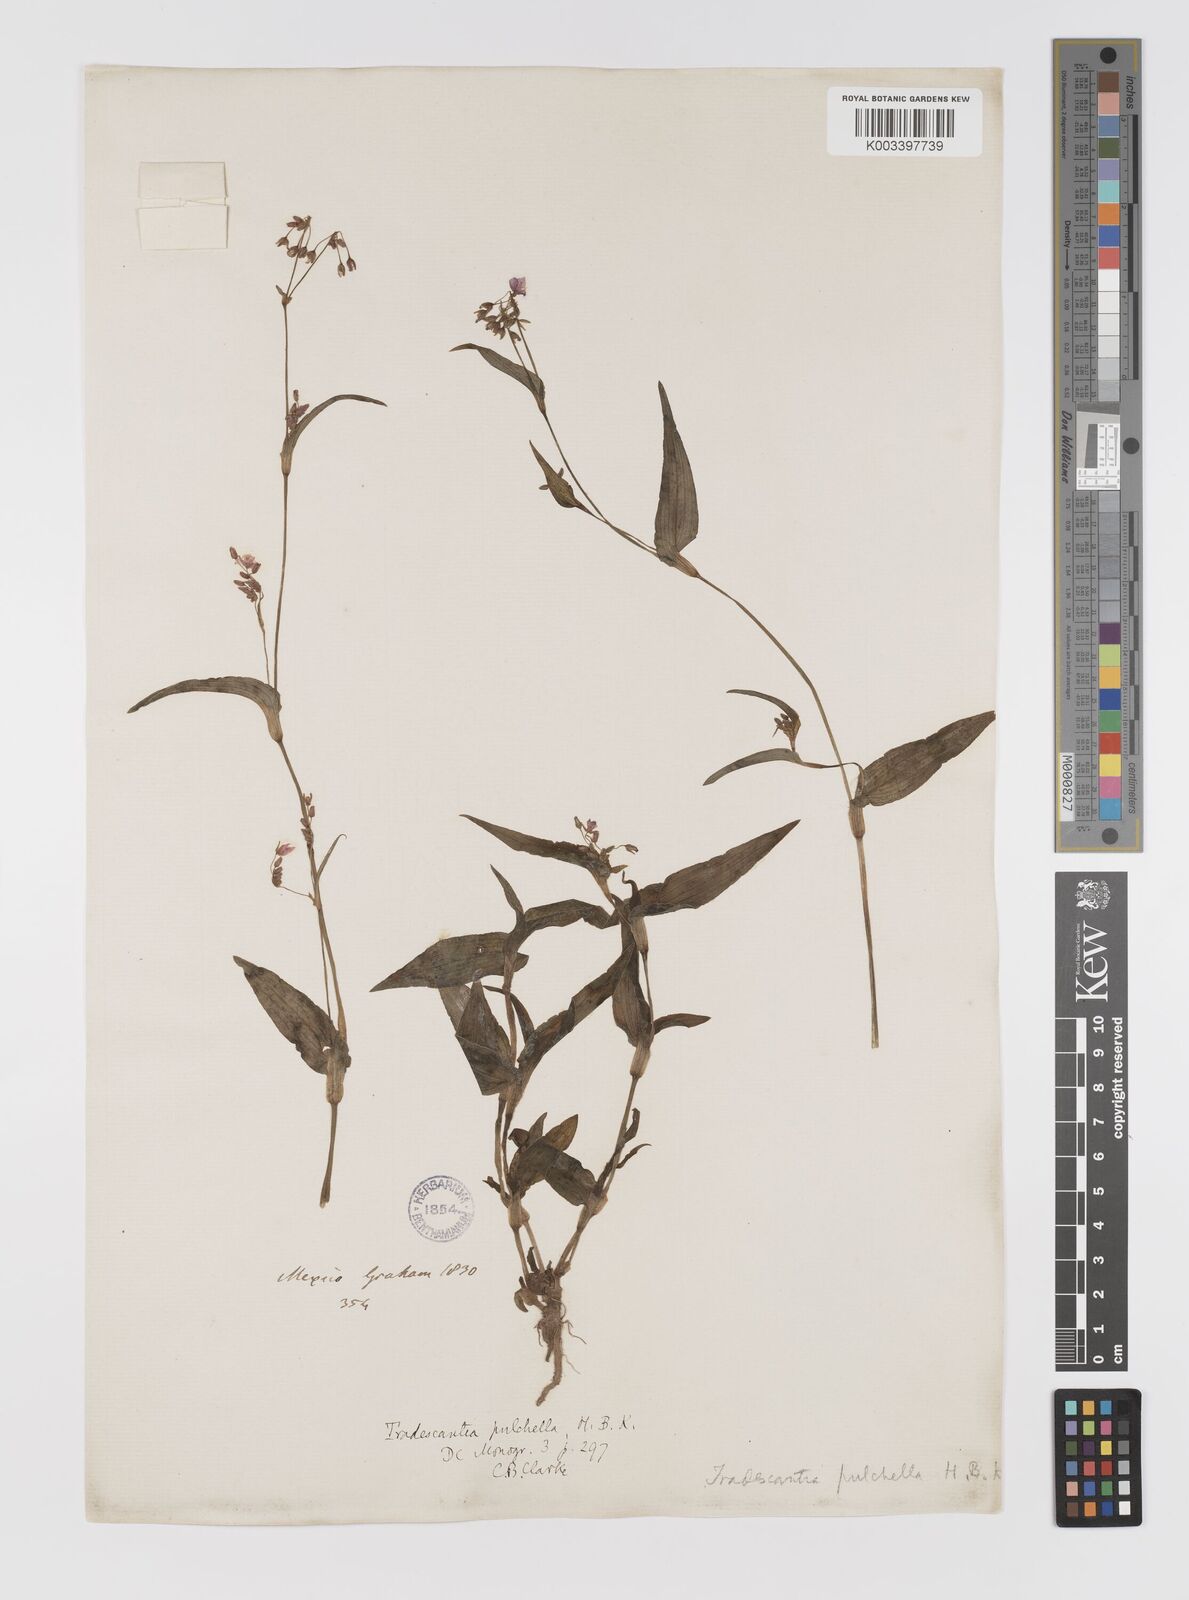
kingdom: Plantae
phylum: Tracheophyta
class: Liliopsida
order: Commelinales
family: Commelinaceae
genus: Gibasis
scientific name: Gibasis pulchella
